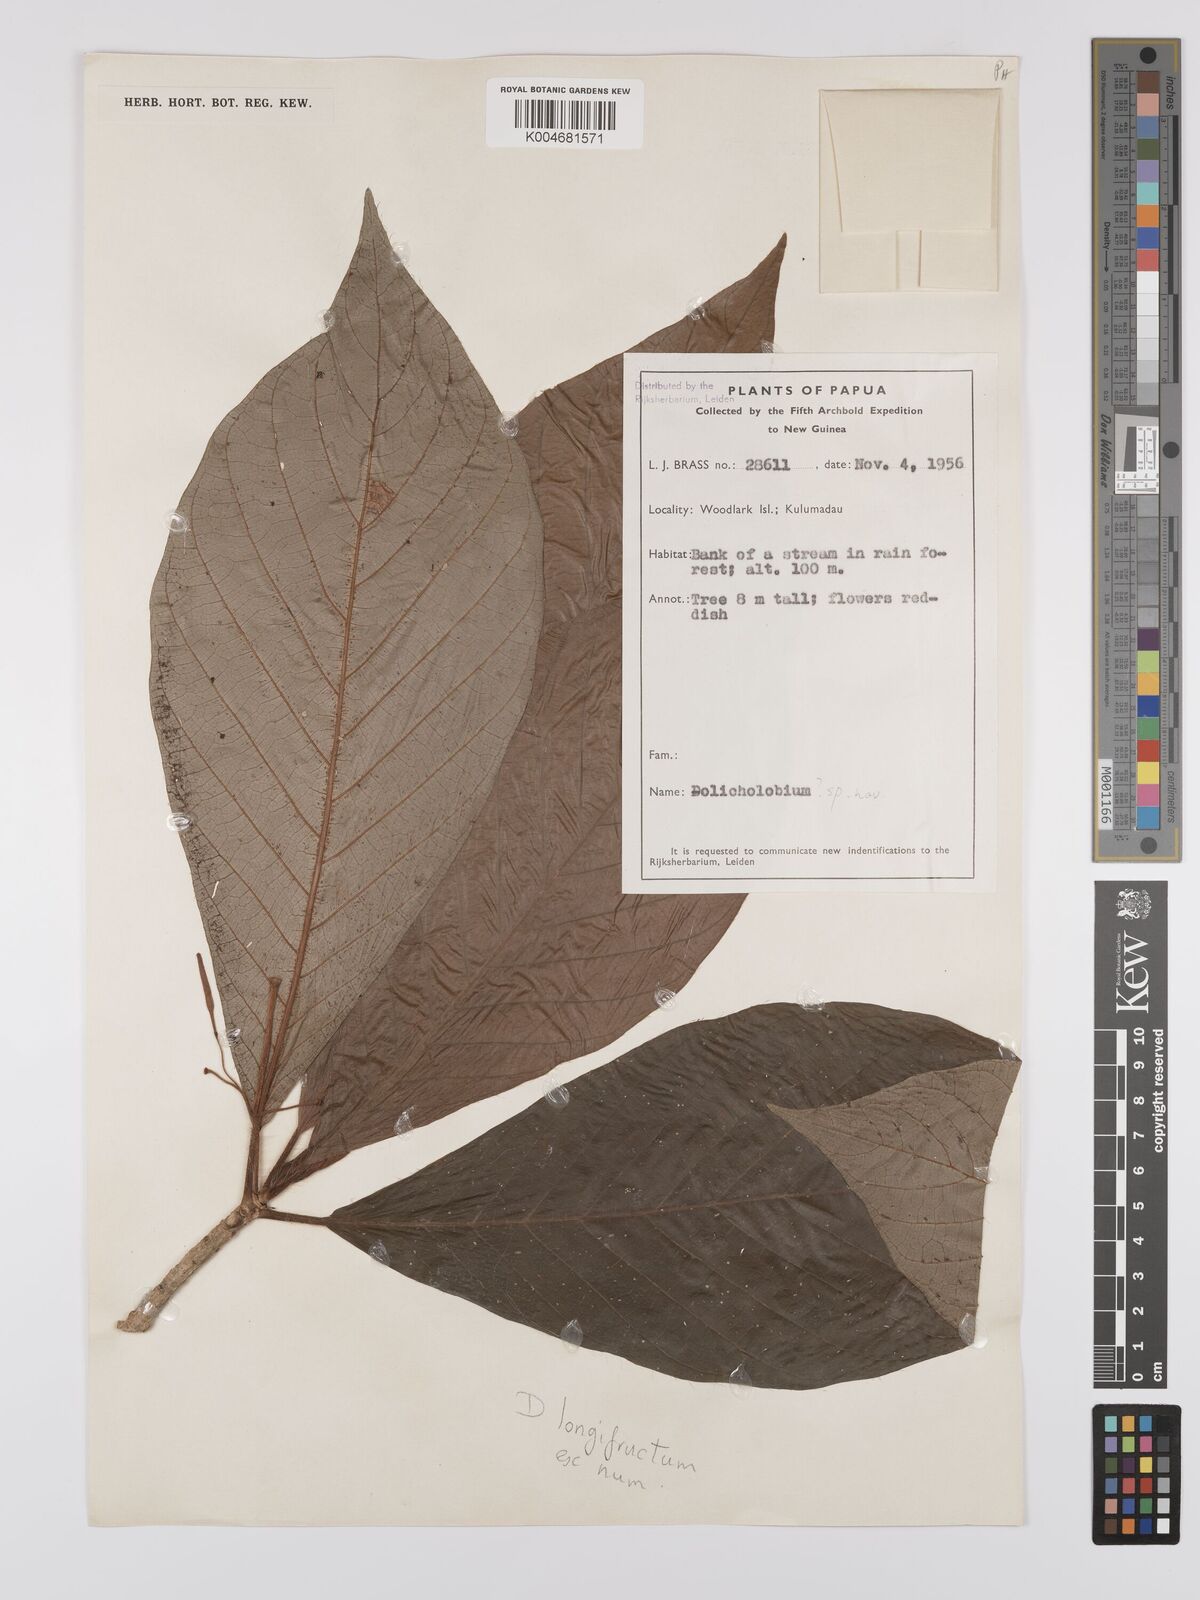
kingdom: Plantae
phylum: Tracheophyta
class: Magnoliopsida
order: Gentianales
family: Rubiaceae
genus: Dolicholobium
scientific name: Dolicholobium longifructum
